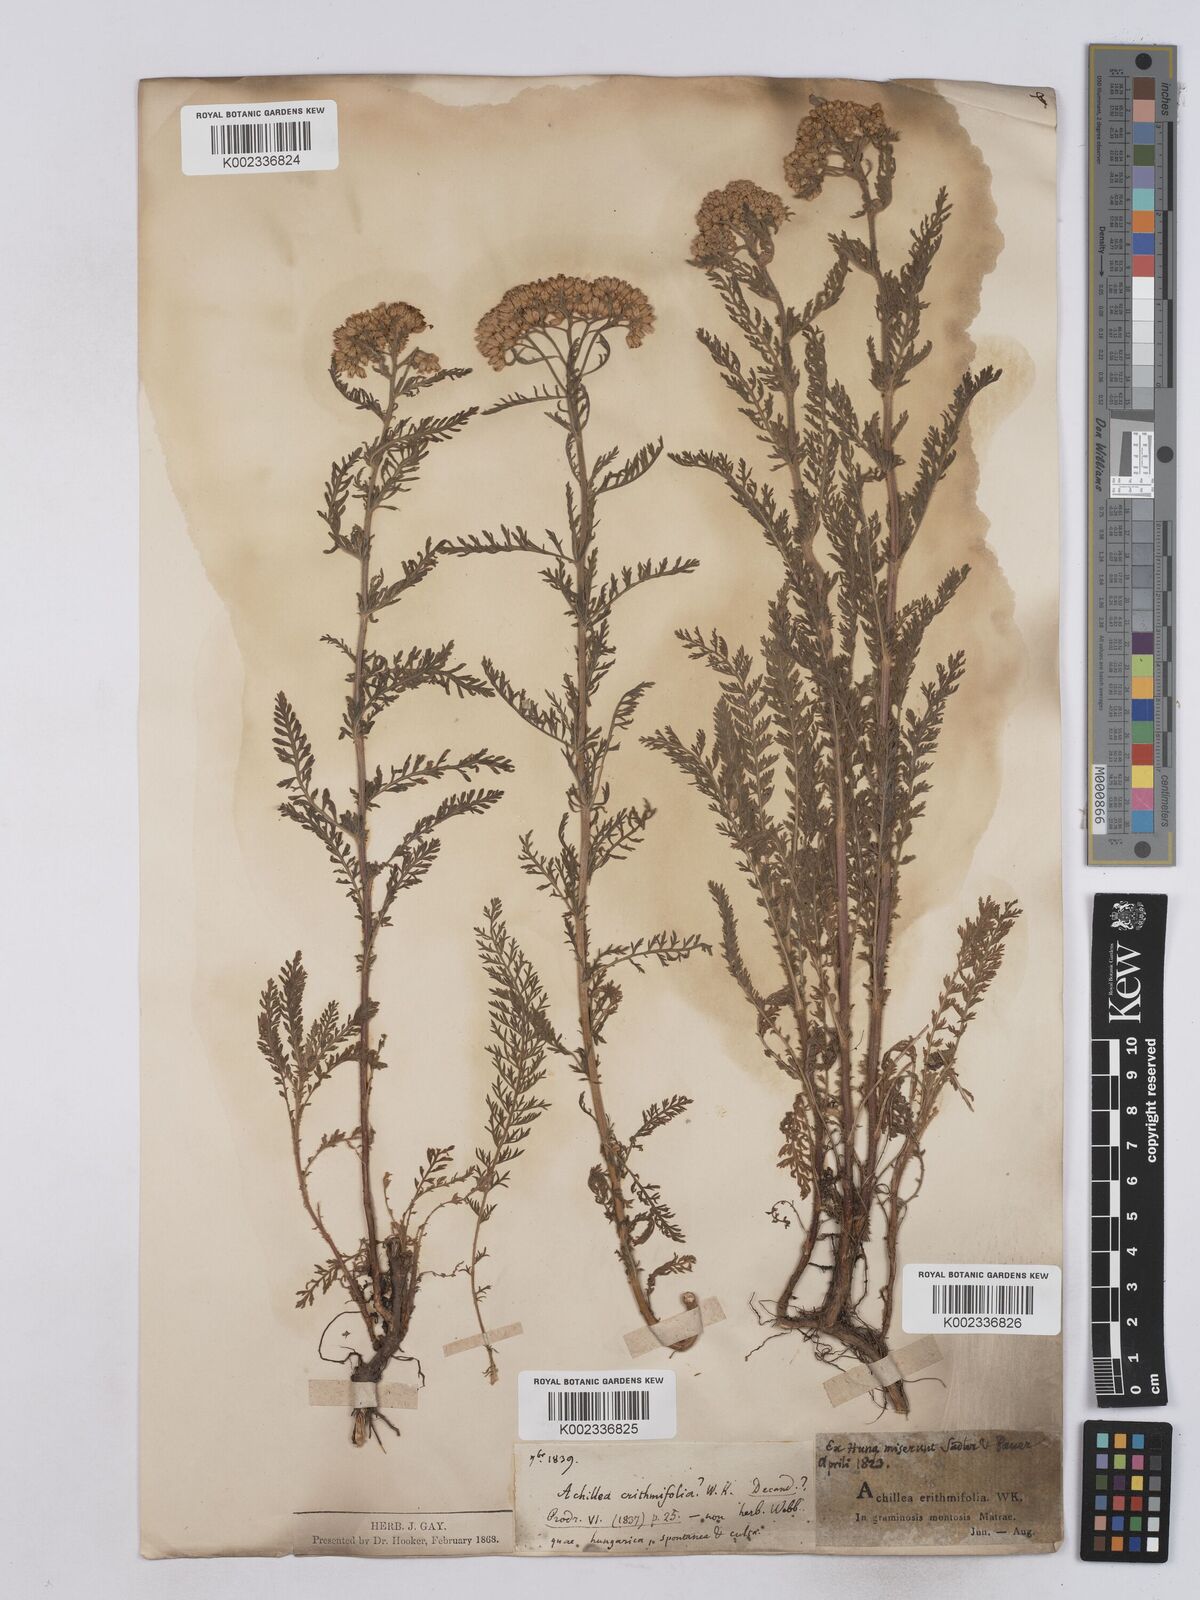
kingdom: Plantae
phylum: Tracheophyta
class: Magnoliopsida
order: Asterales
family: Asteraceae
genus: Achillea
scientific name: Achillea crithmifolia
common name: Yarrow
